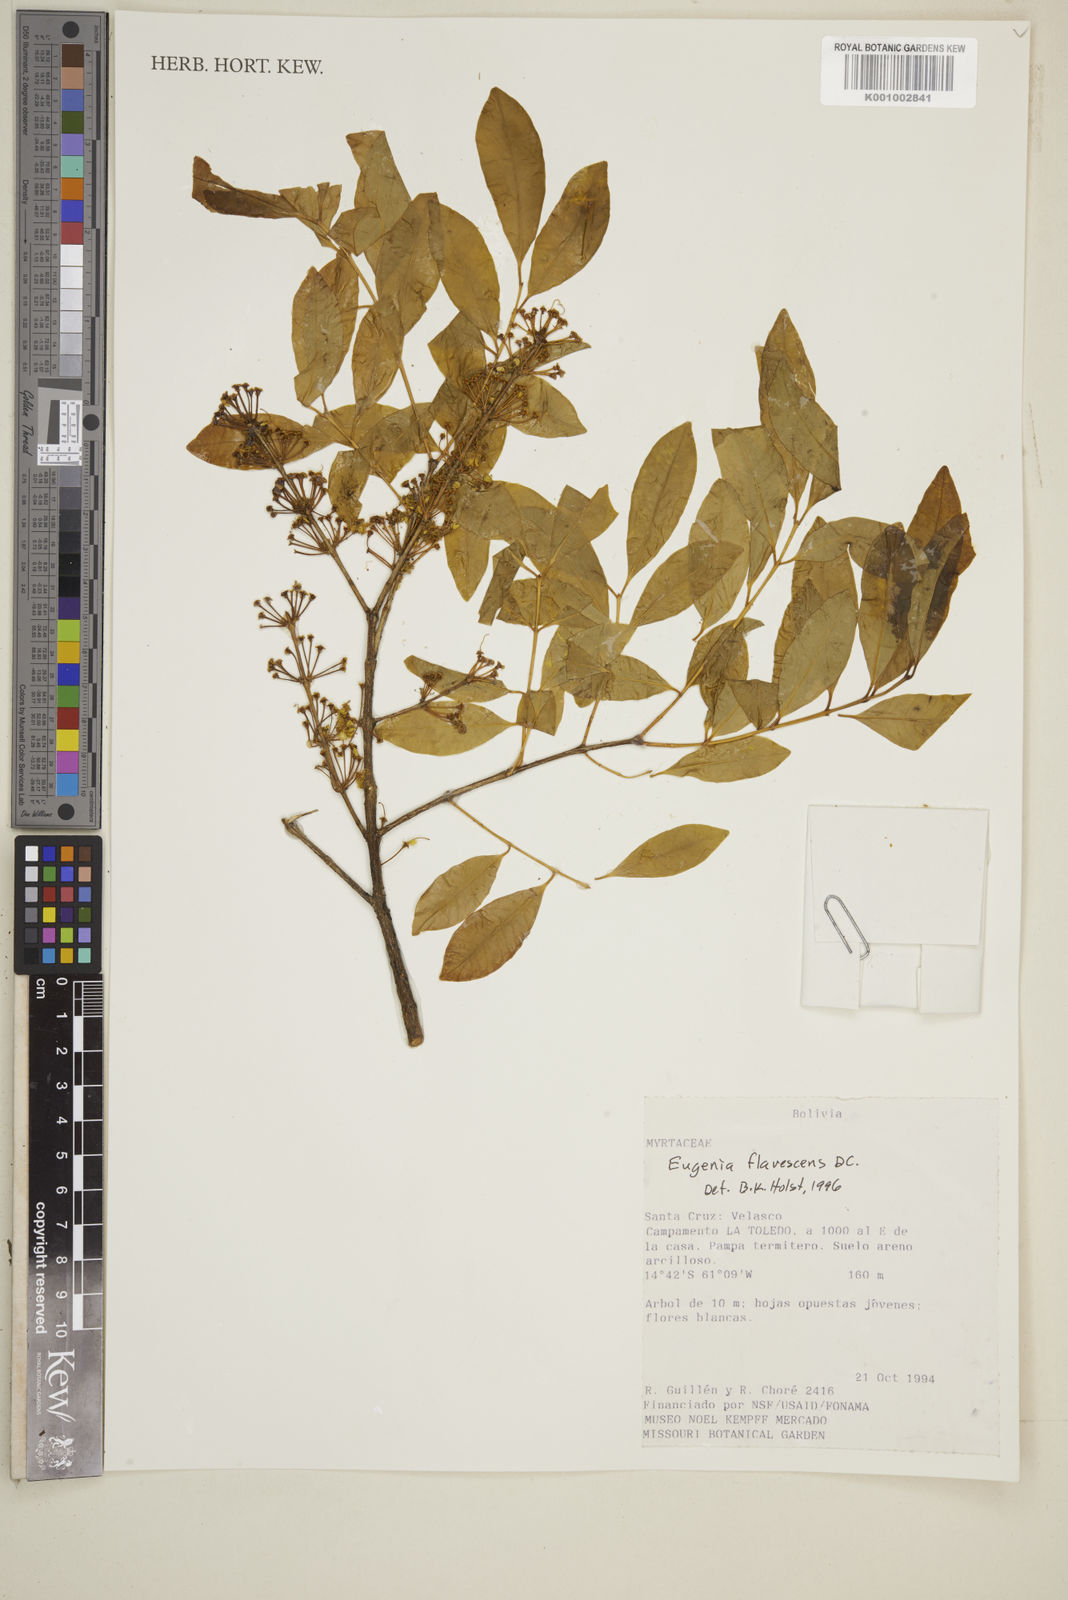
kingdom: Plantae
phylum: Tracheophyta
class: Magnoliopsida
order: Myrtales
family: Myrtaceae
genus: Eugenia
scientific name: Eugenia flavescens
